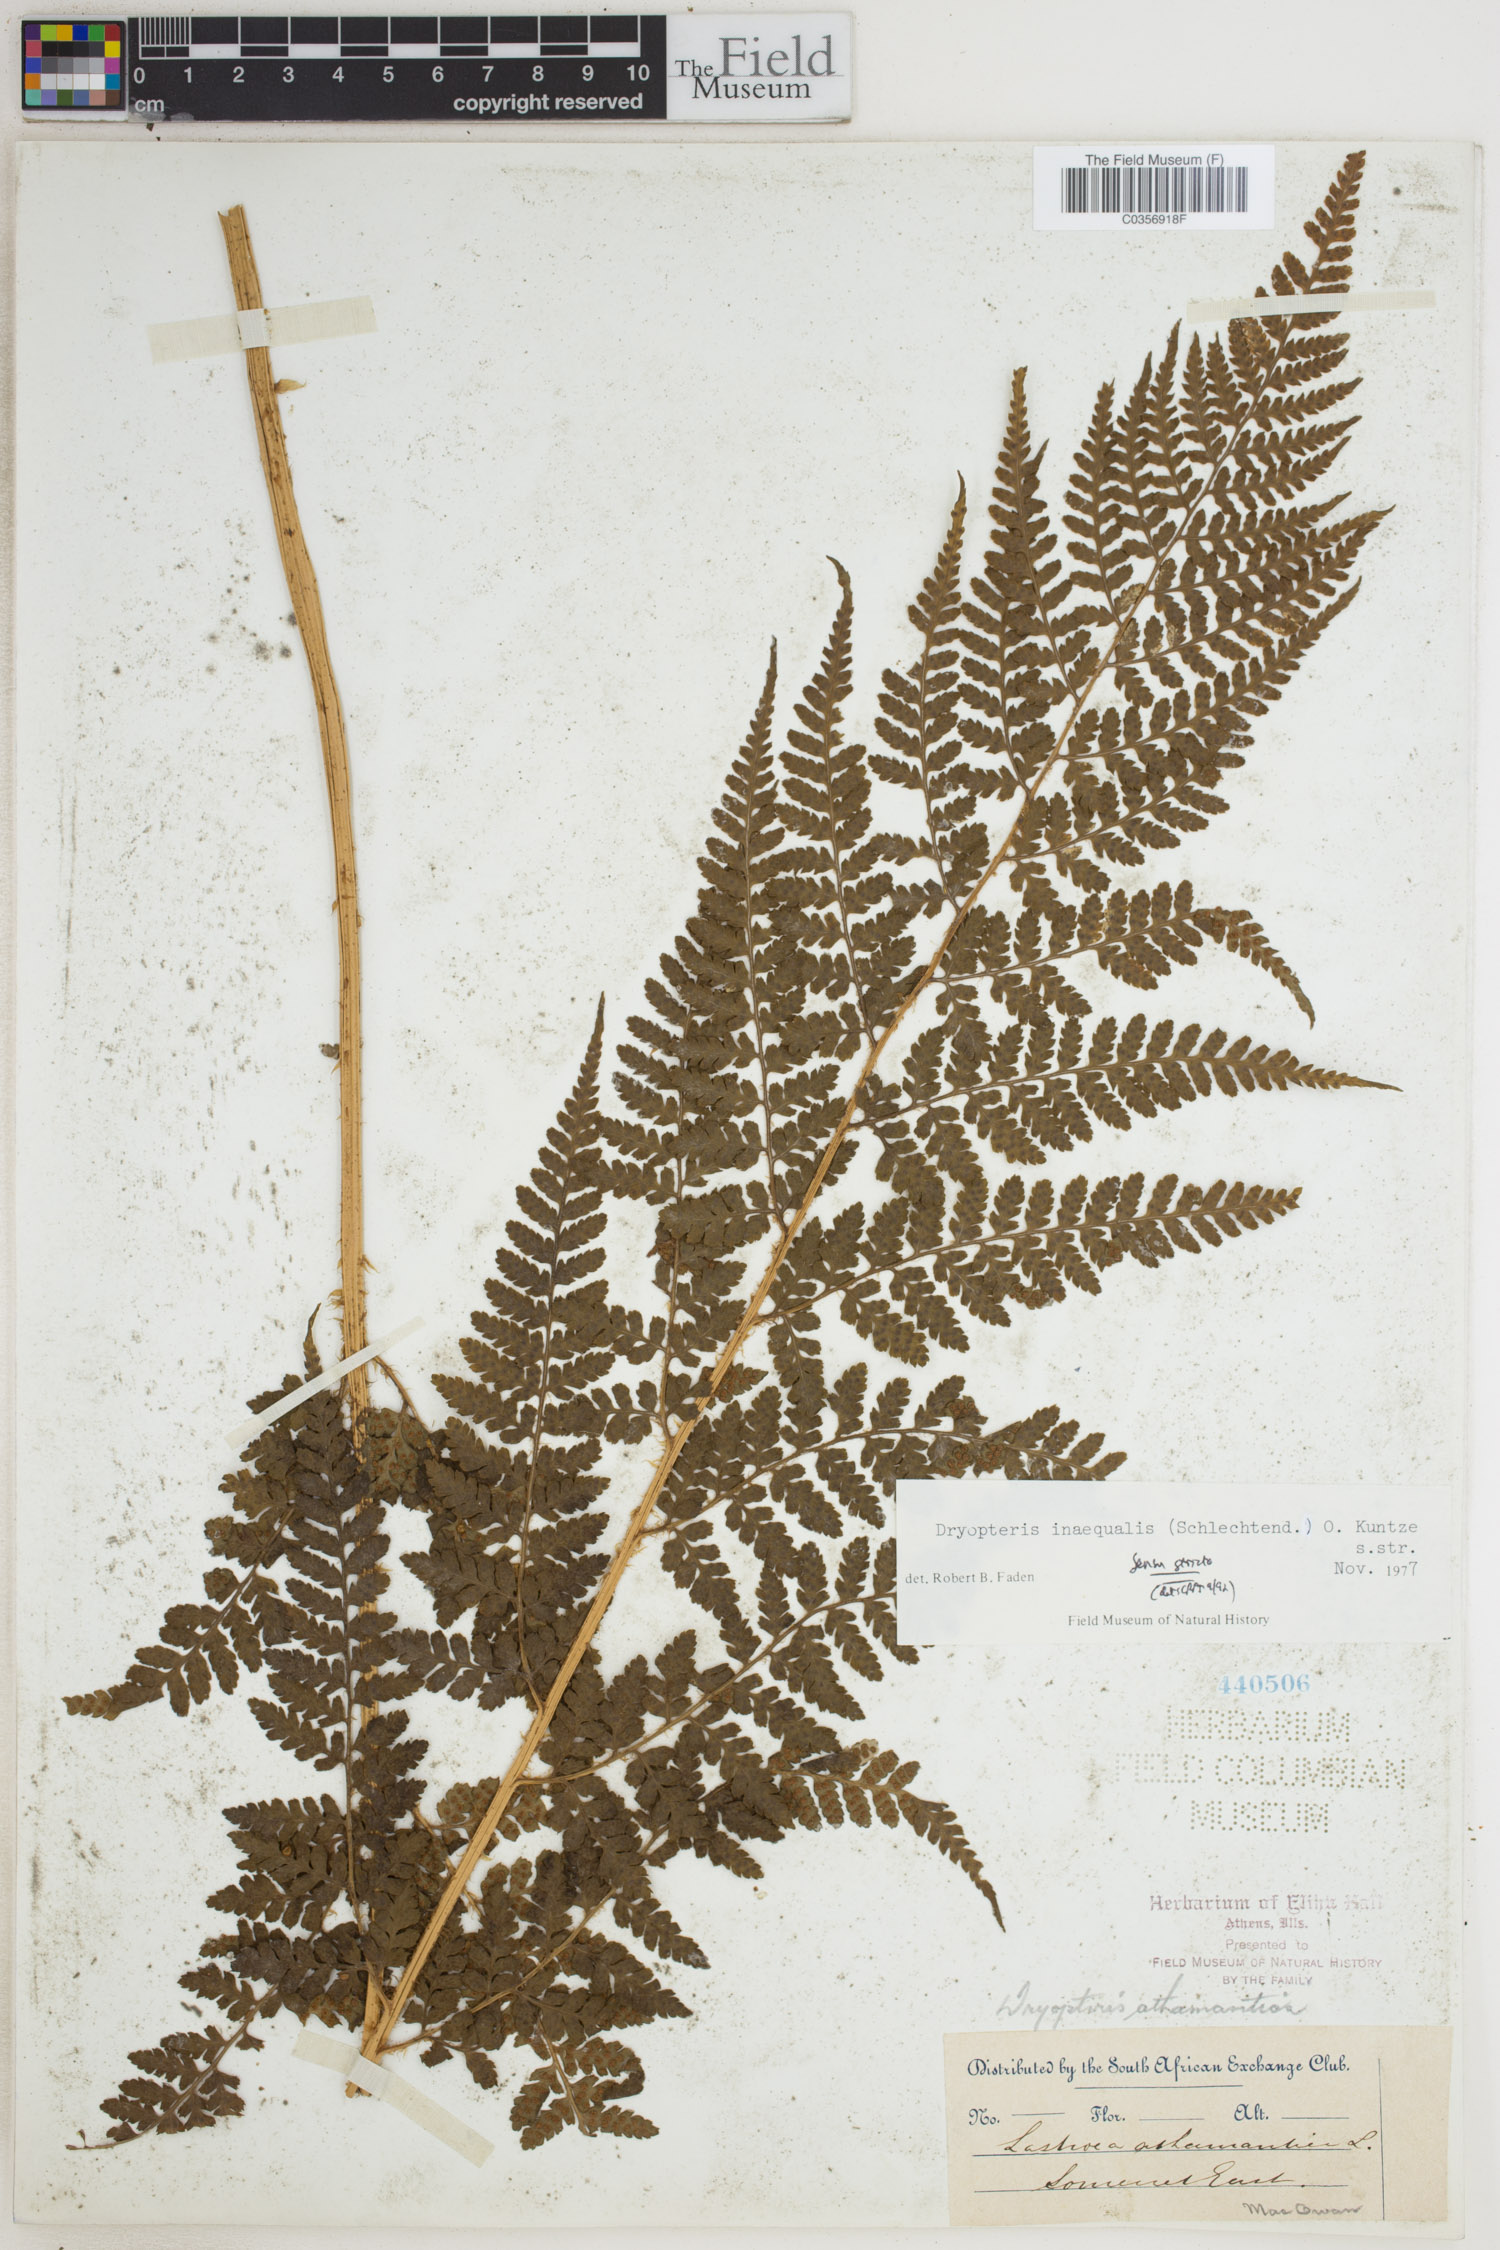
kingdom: Plantae
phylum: Tracheophyta
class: Polypodiopsida
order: Polypodiales
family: Dryopteridaceae
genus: Dryopteris
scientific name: Dryopteris inaequalis
